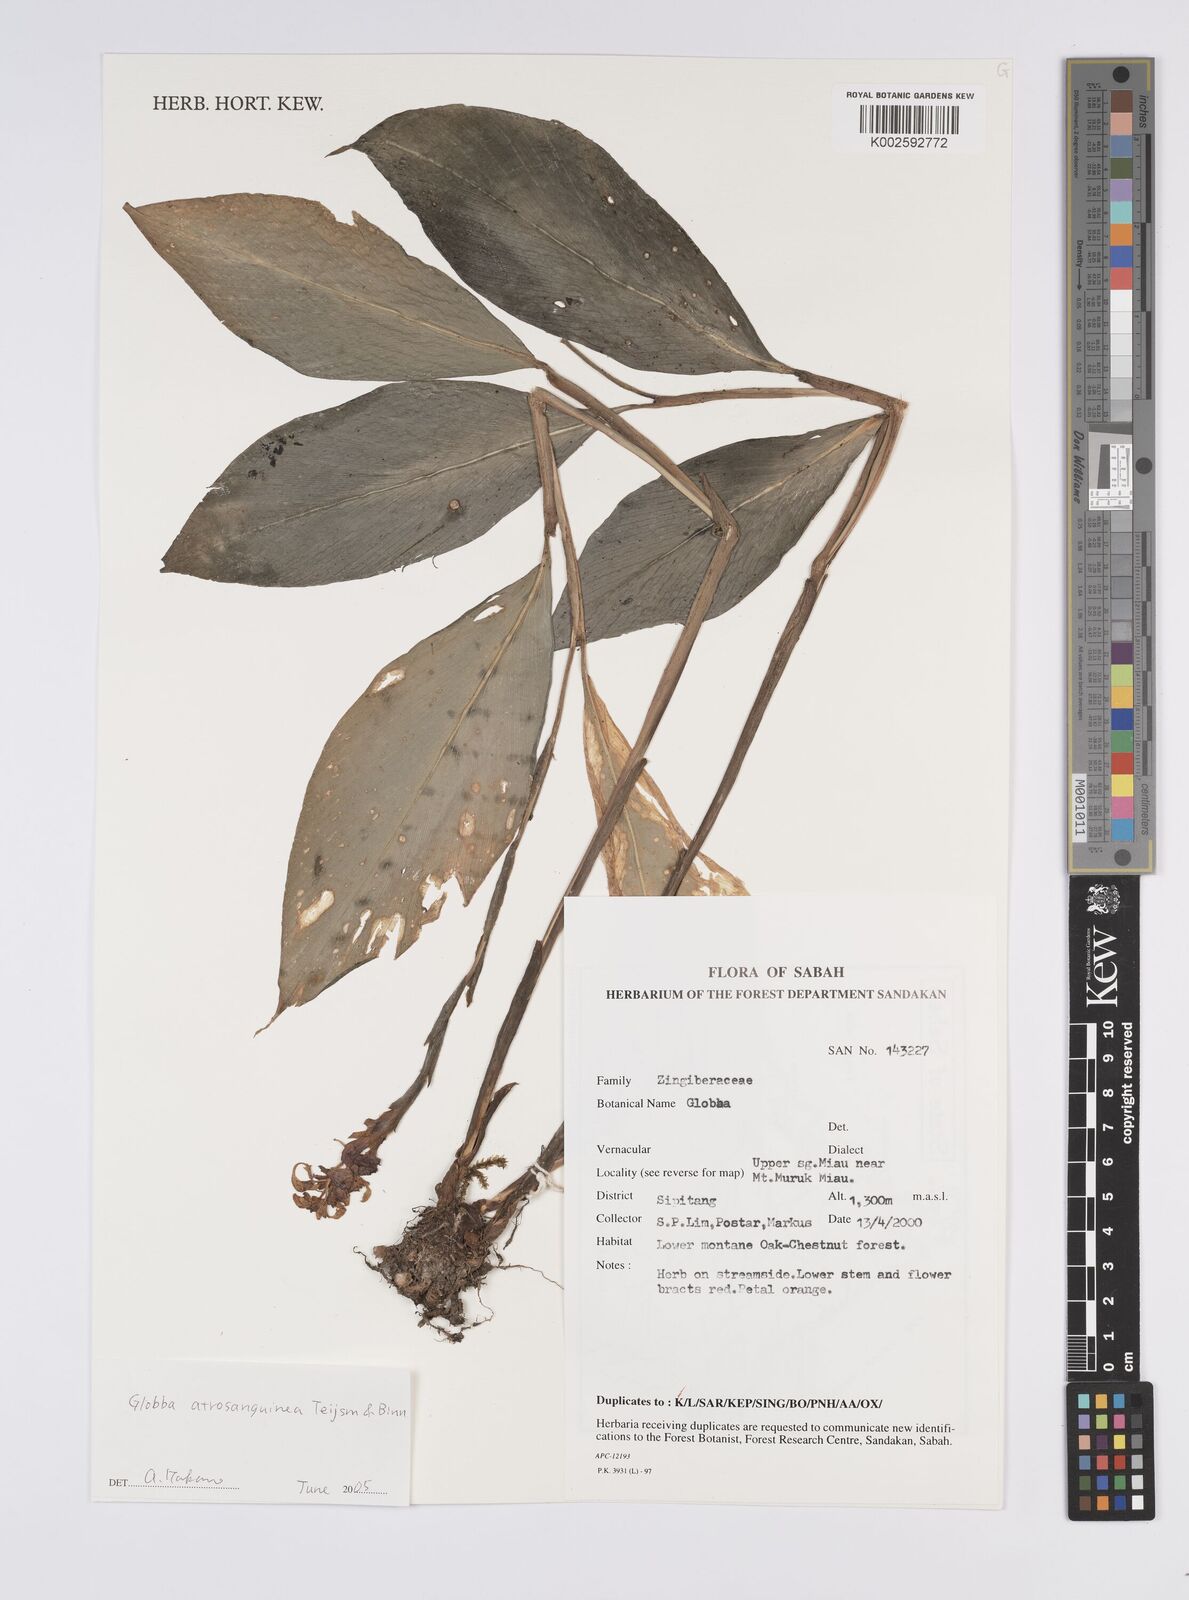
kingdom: Plantae
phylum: Tracheophyta
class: Liliopsida
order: Zingiberales
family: Zingiberaceae
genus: Globba
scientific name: Globba atrosanguinea
